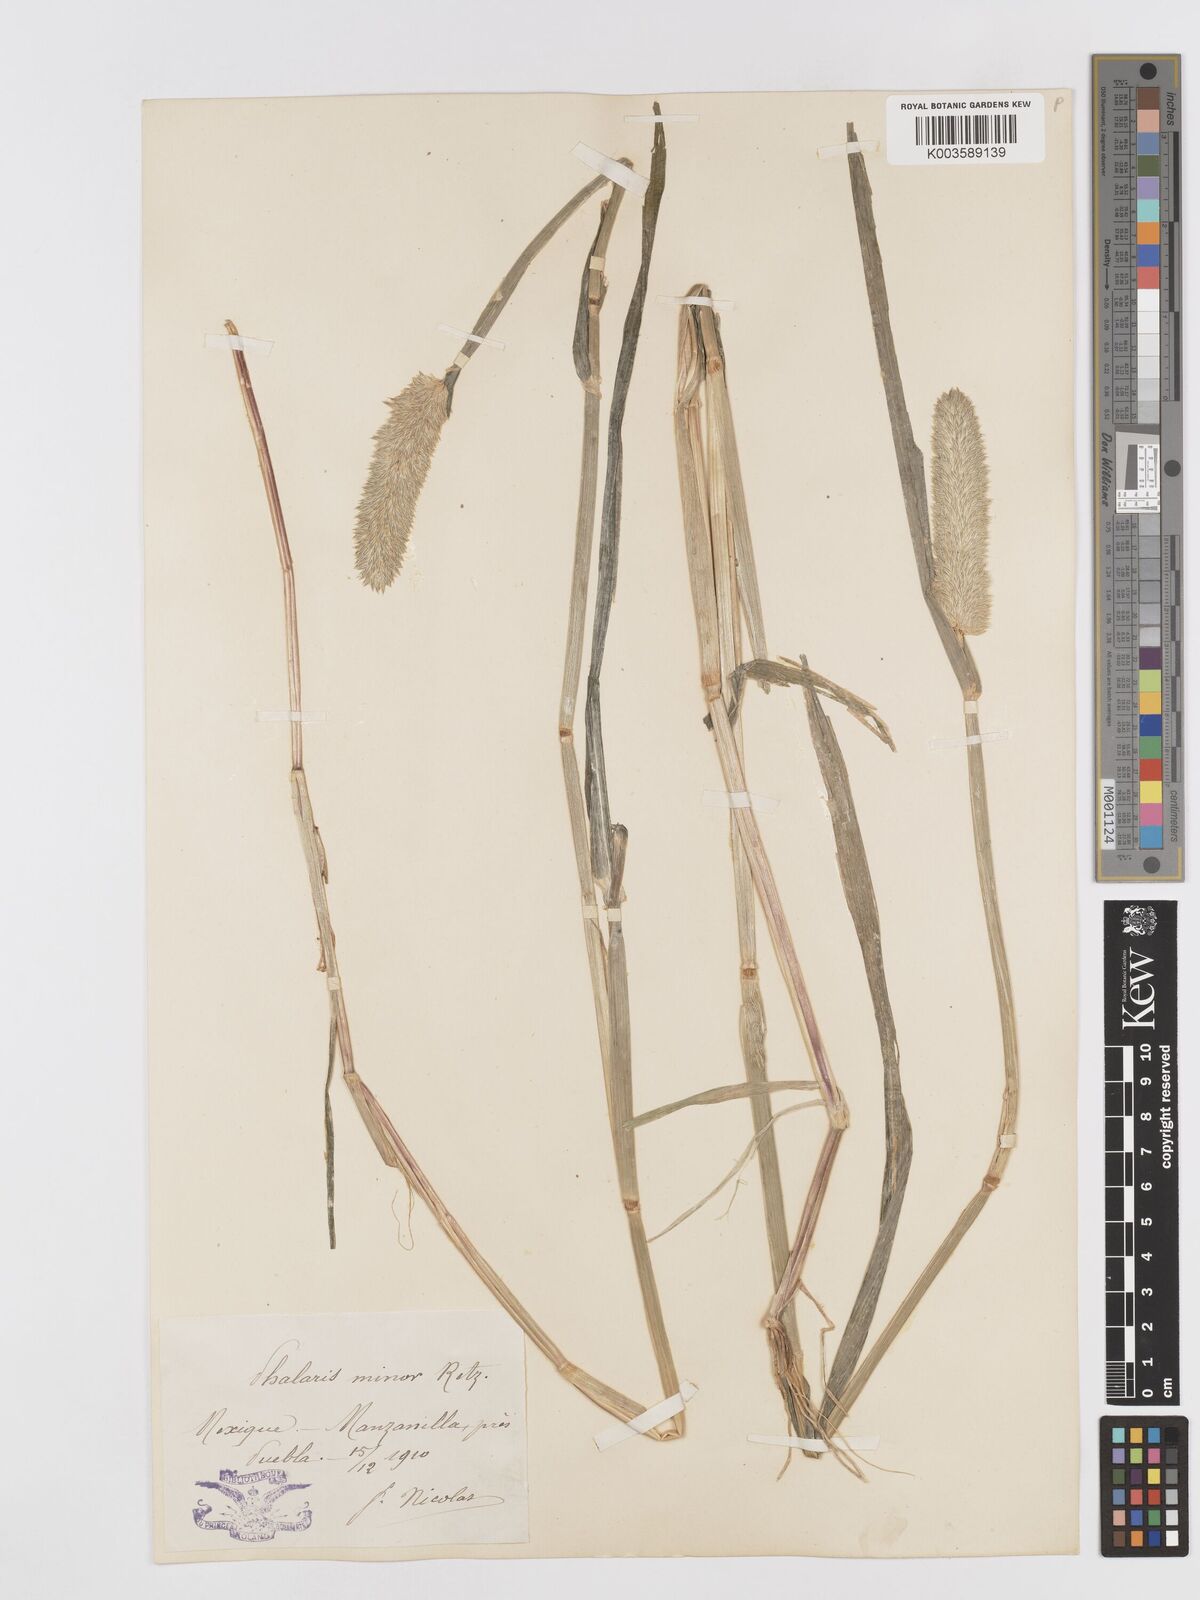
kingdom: Plantae
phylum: Tracheophyta
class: Liliopsida
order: Poales
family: Poaceae
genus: Phalaris
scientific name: Phalaris minor
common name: Littleseed canarygrass
